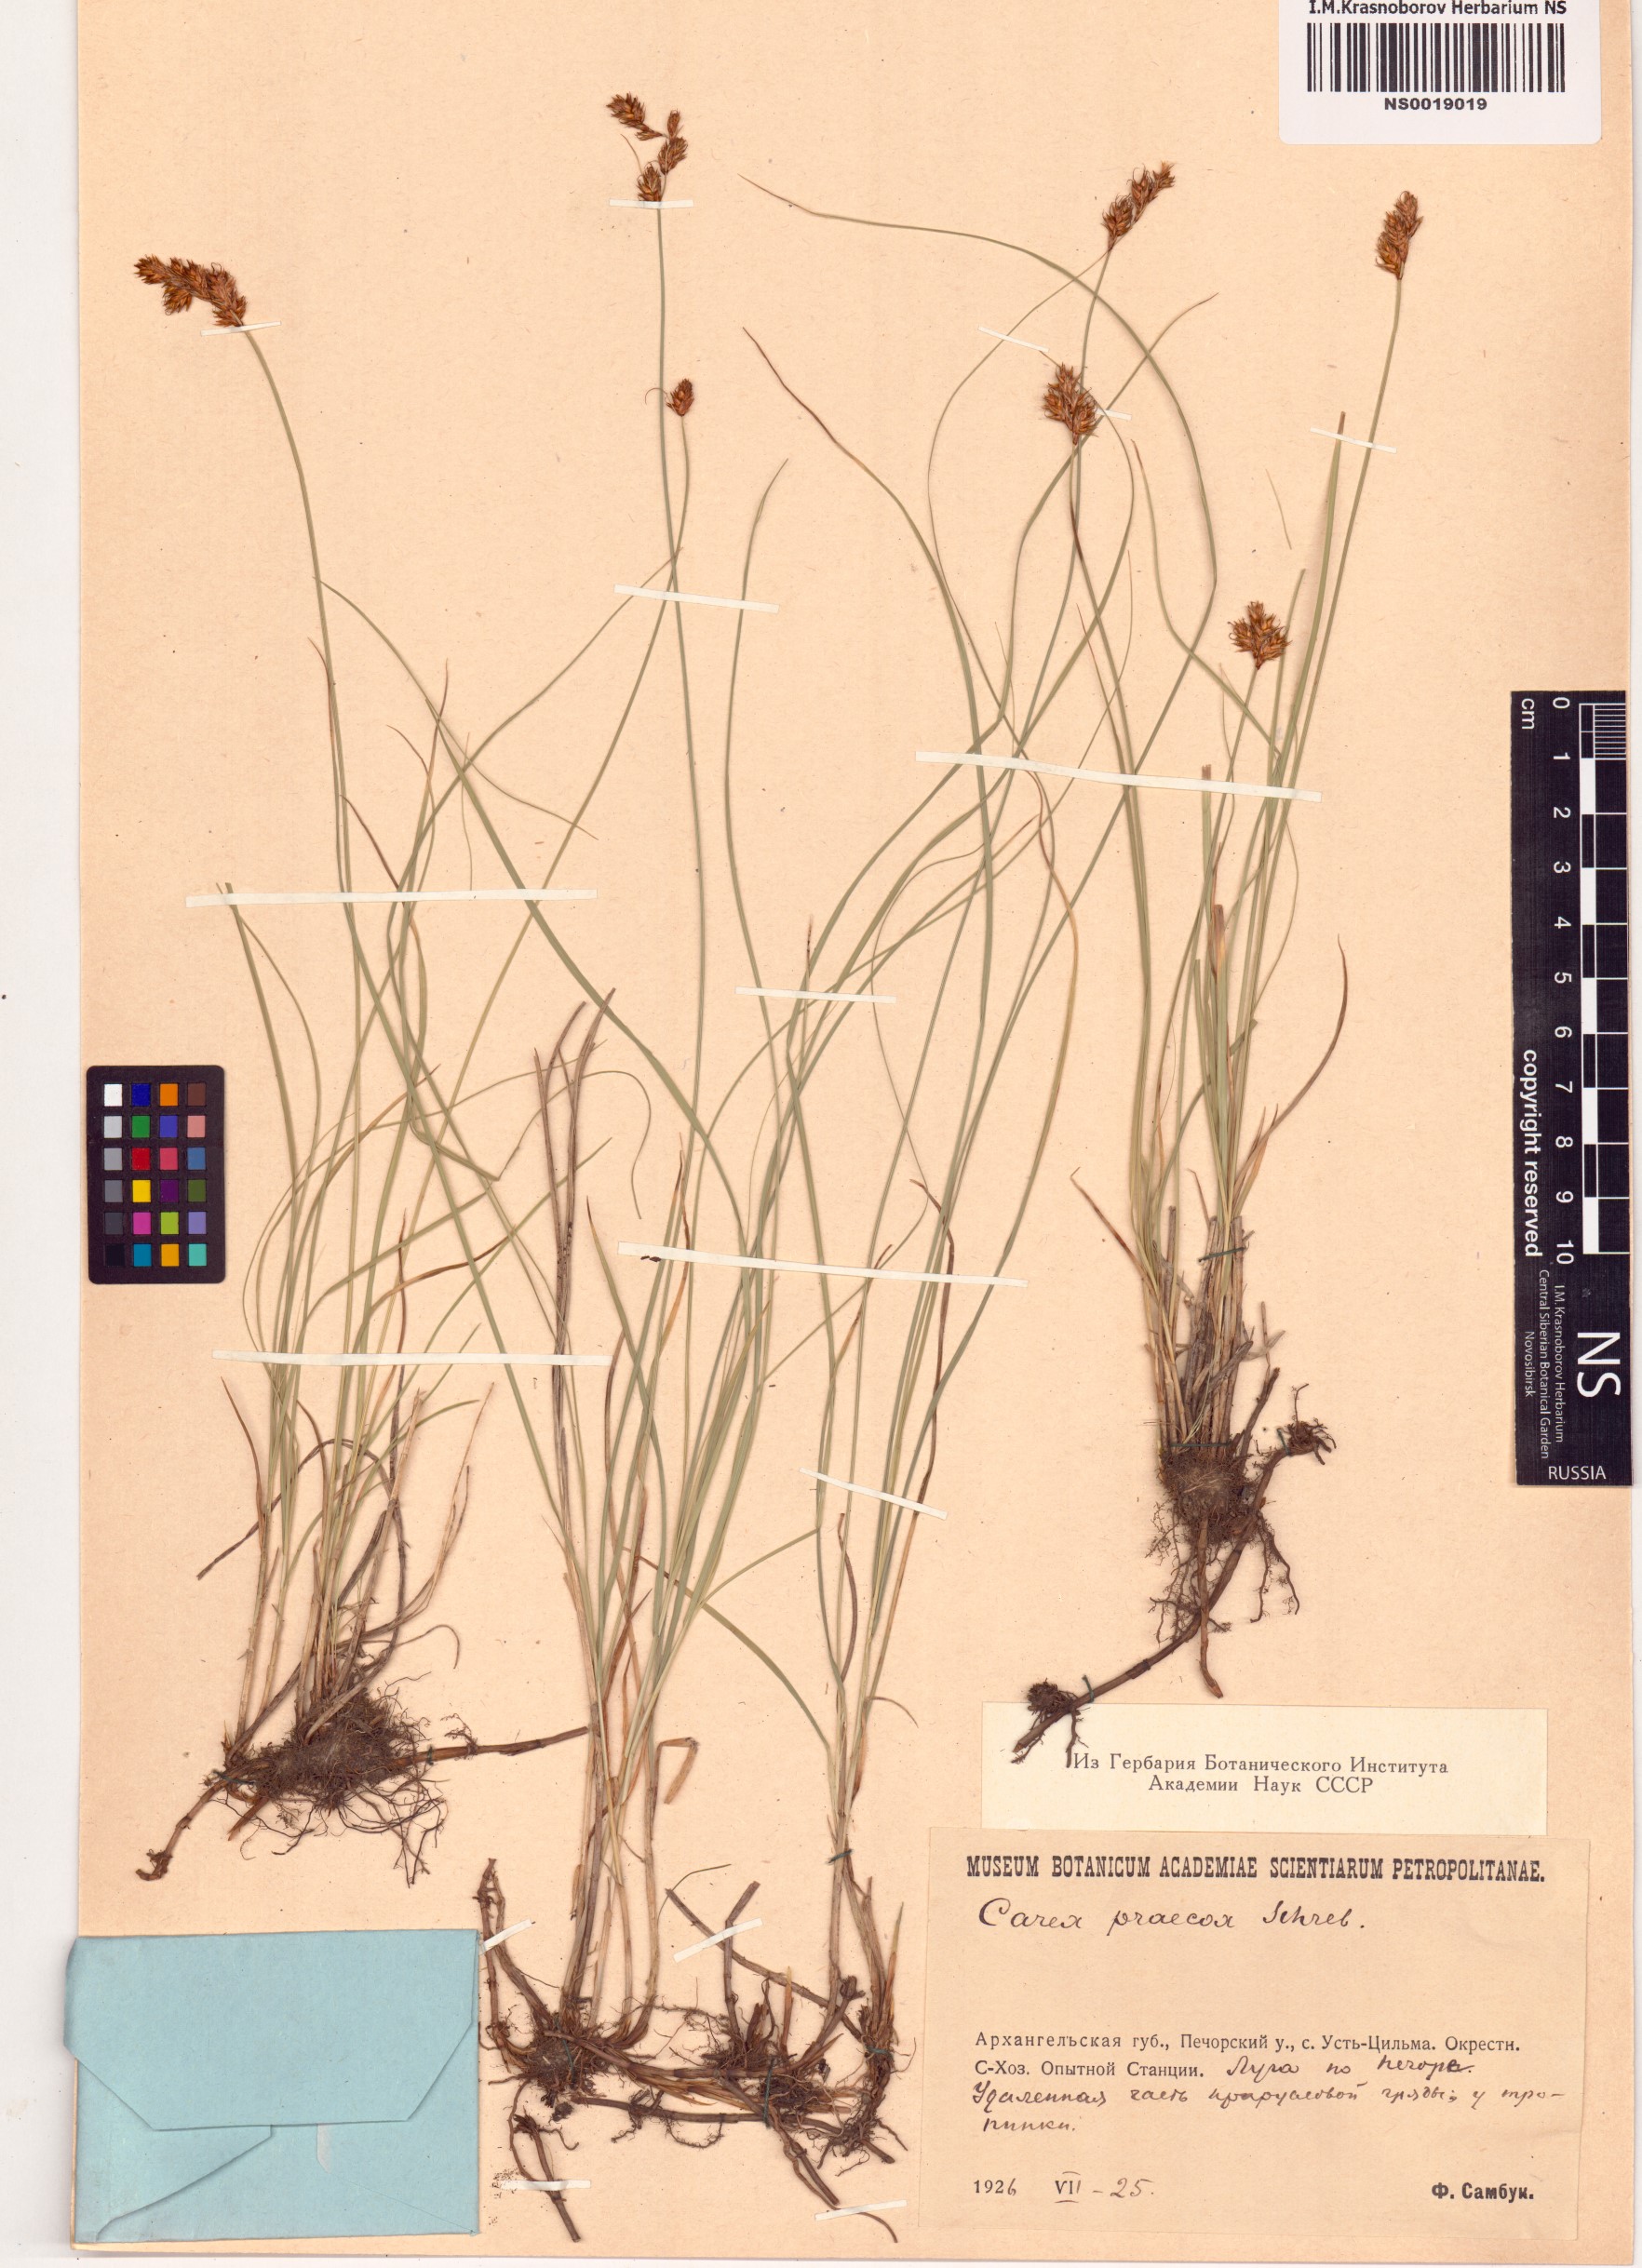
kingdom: Plantae
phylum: Tracheophyta
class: Liliopsida
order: Poales
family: Cyperaceae
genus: Carex
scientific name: Carex praecox
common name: Early sedge
